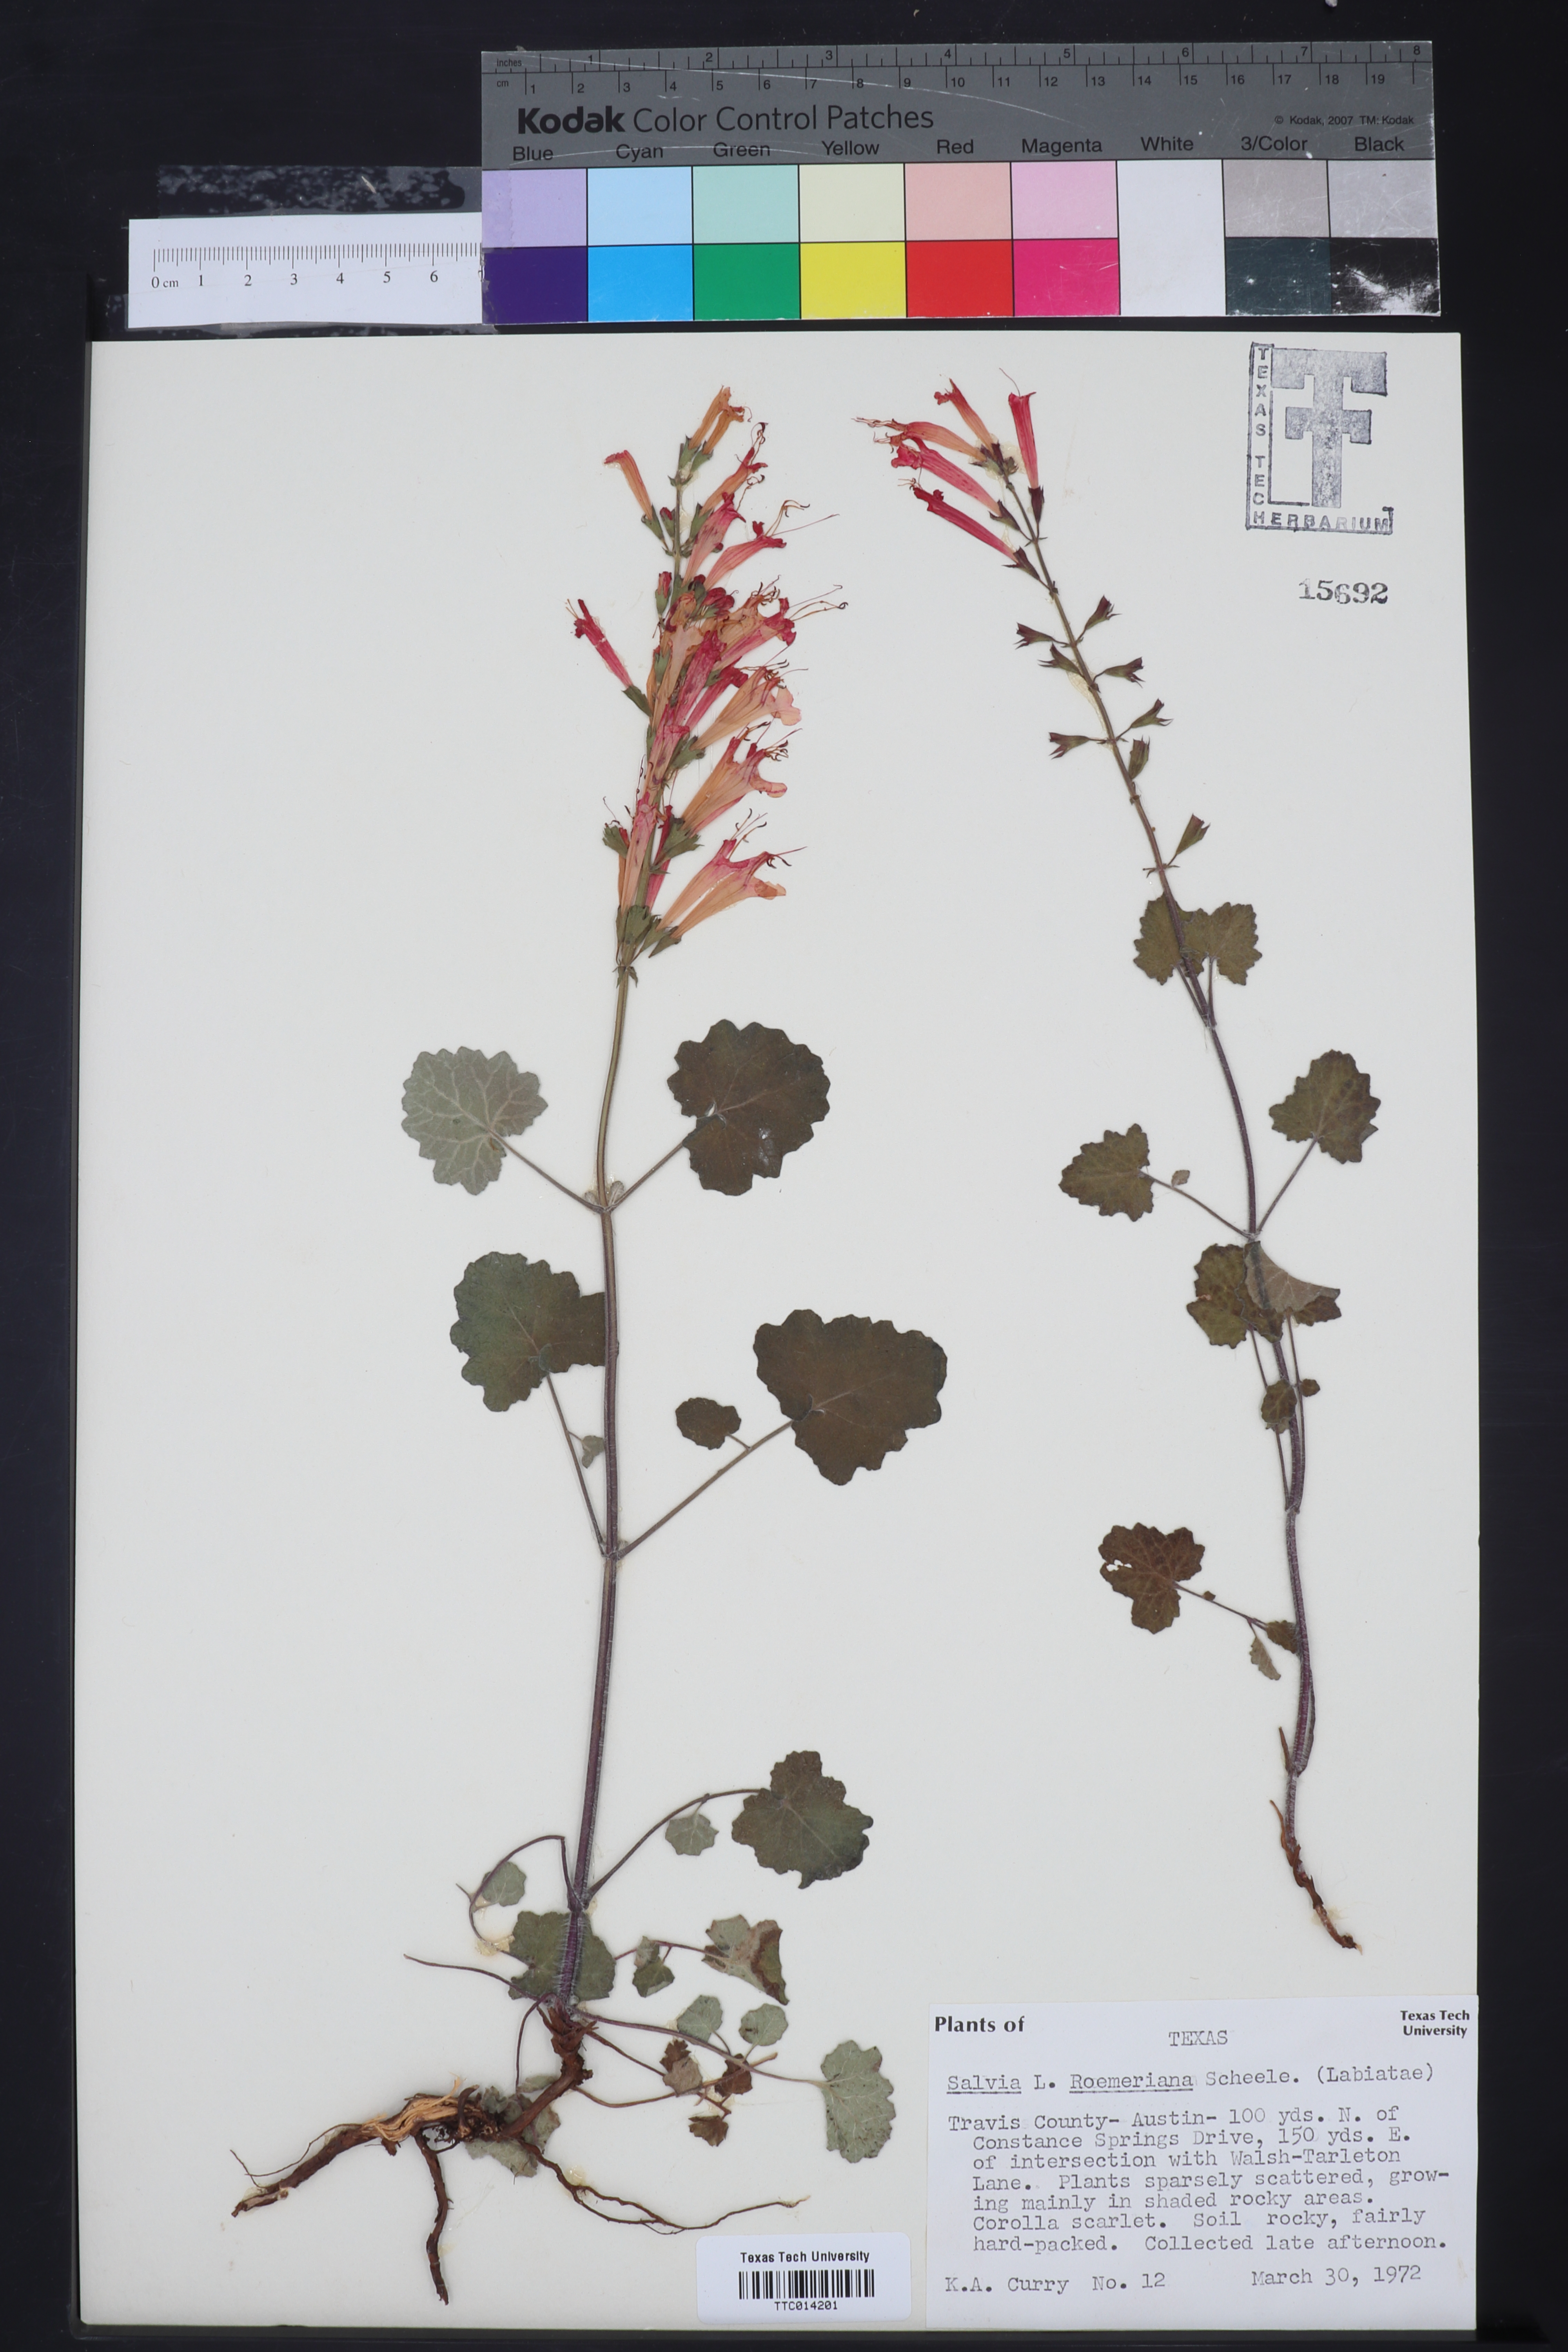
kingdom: Plantae
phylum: Tracheophyta
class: Magnoliopsida
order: Lamiales
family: Lamiaceae
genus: Salvia
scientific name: Salvia roemeriana
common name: Cedar sage
